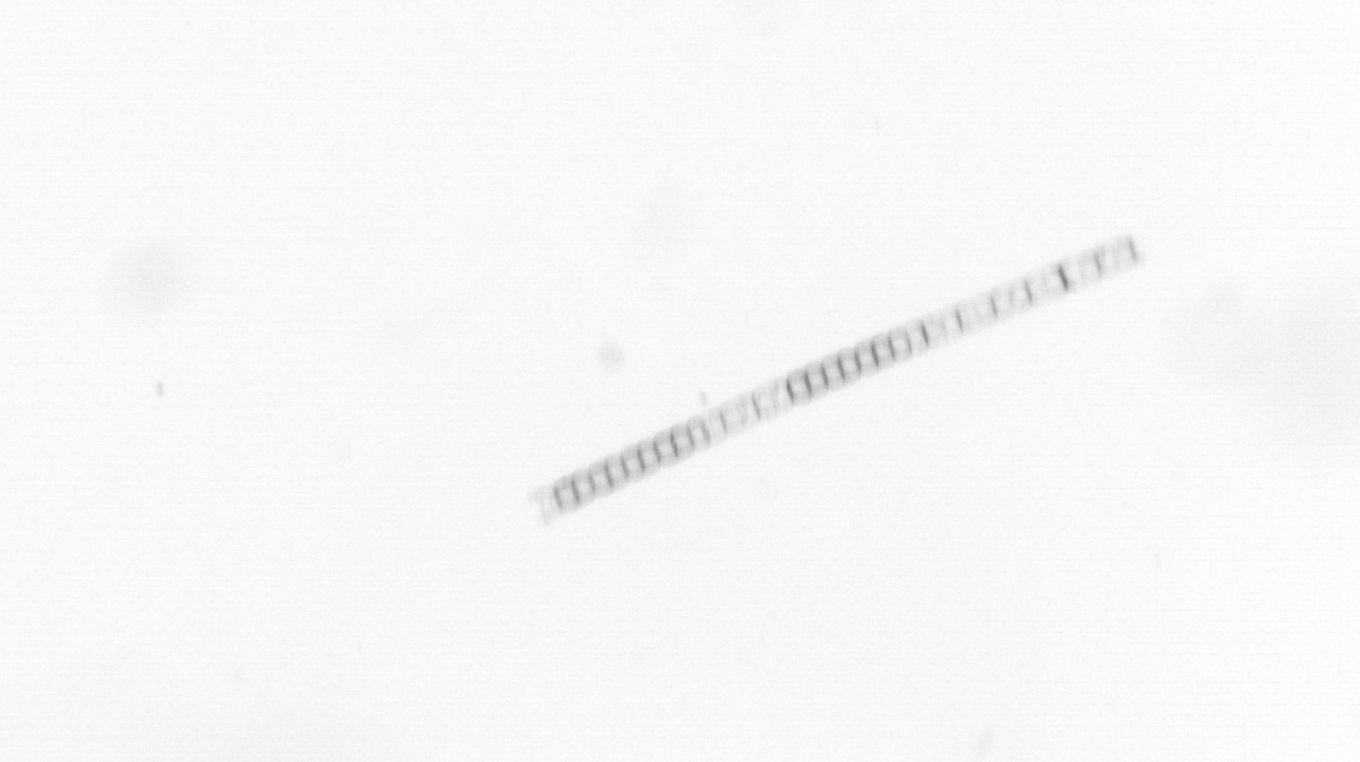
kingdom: Chromista
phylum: Ochrophyta
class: Bacillariophyceae
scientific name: Bacillariophyceae
